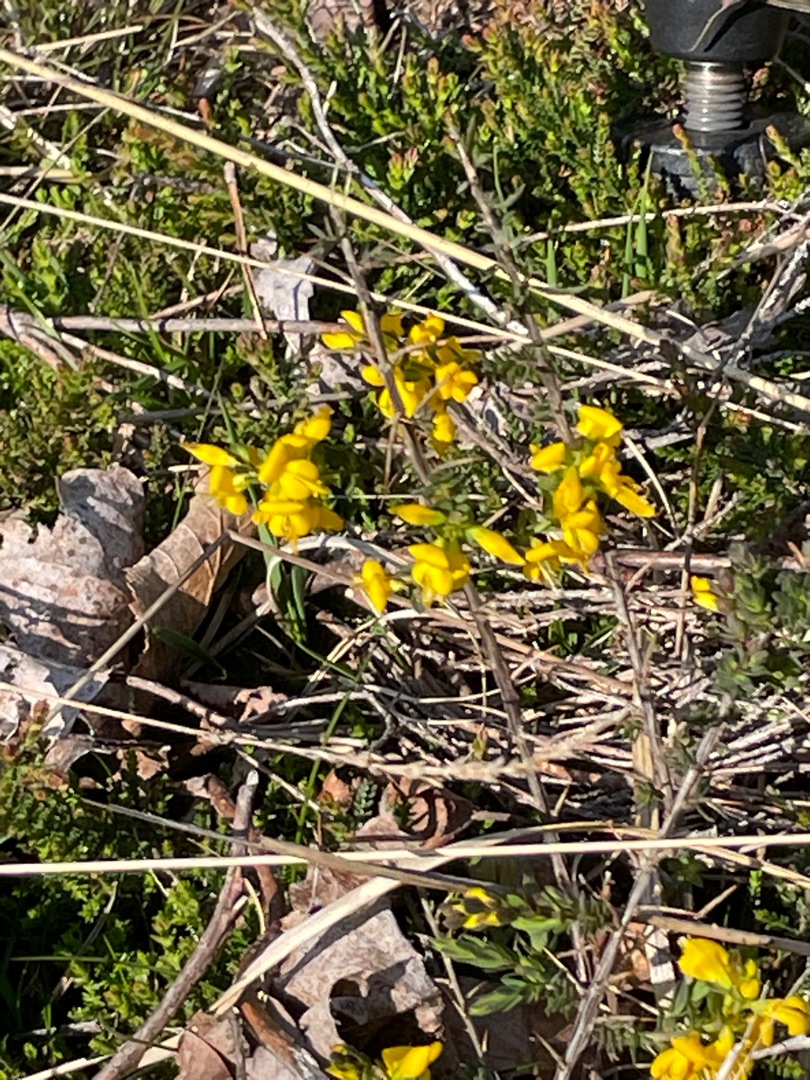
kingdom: Plantae
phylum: Tracheophyta
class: Magnoliopsida
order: Fabales
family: Fabaceae
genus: Genista
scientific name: Genista anglica
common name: Engelsk visse
